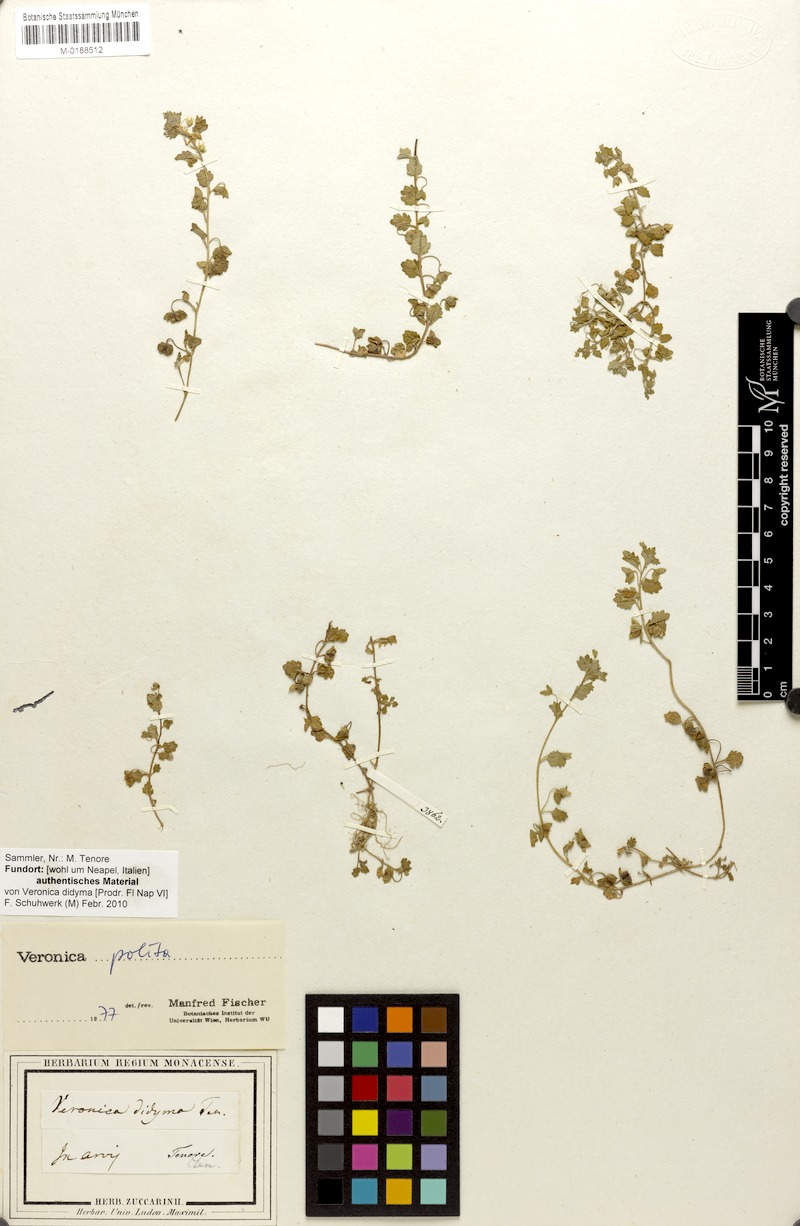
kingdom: Plantae
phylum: Tracheophyta
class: Magnoliopsida
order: Lamiales
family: Plantaginaceae
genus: Veronica
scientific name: Veronica polita
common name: Grey field-speedwell
